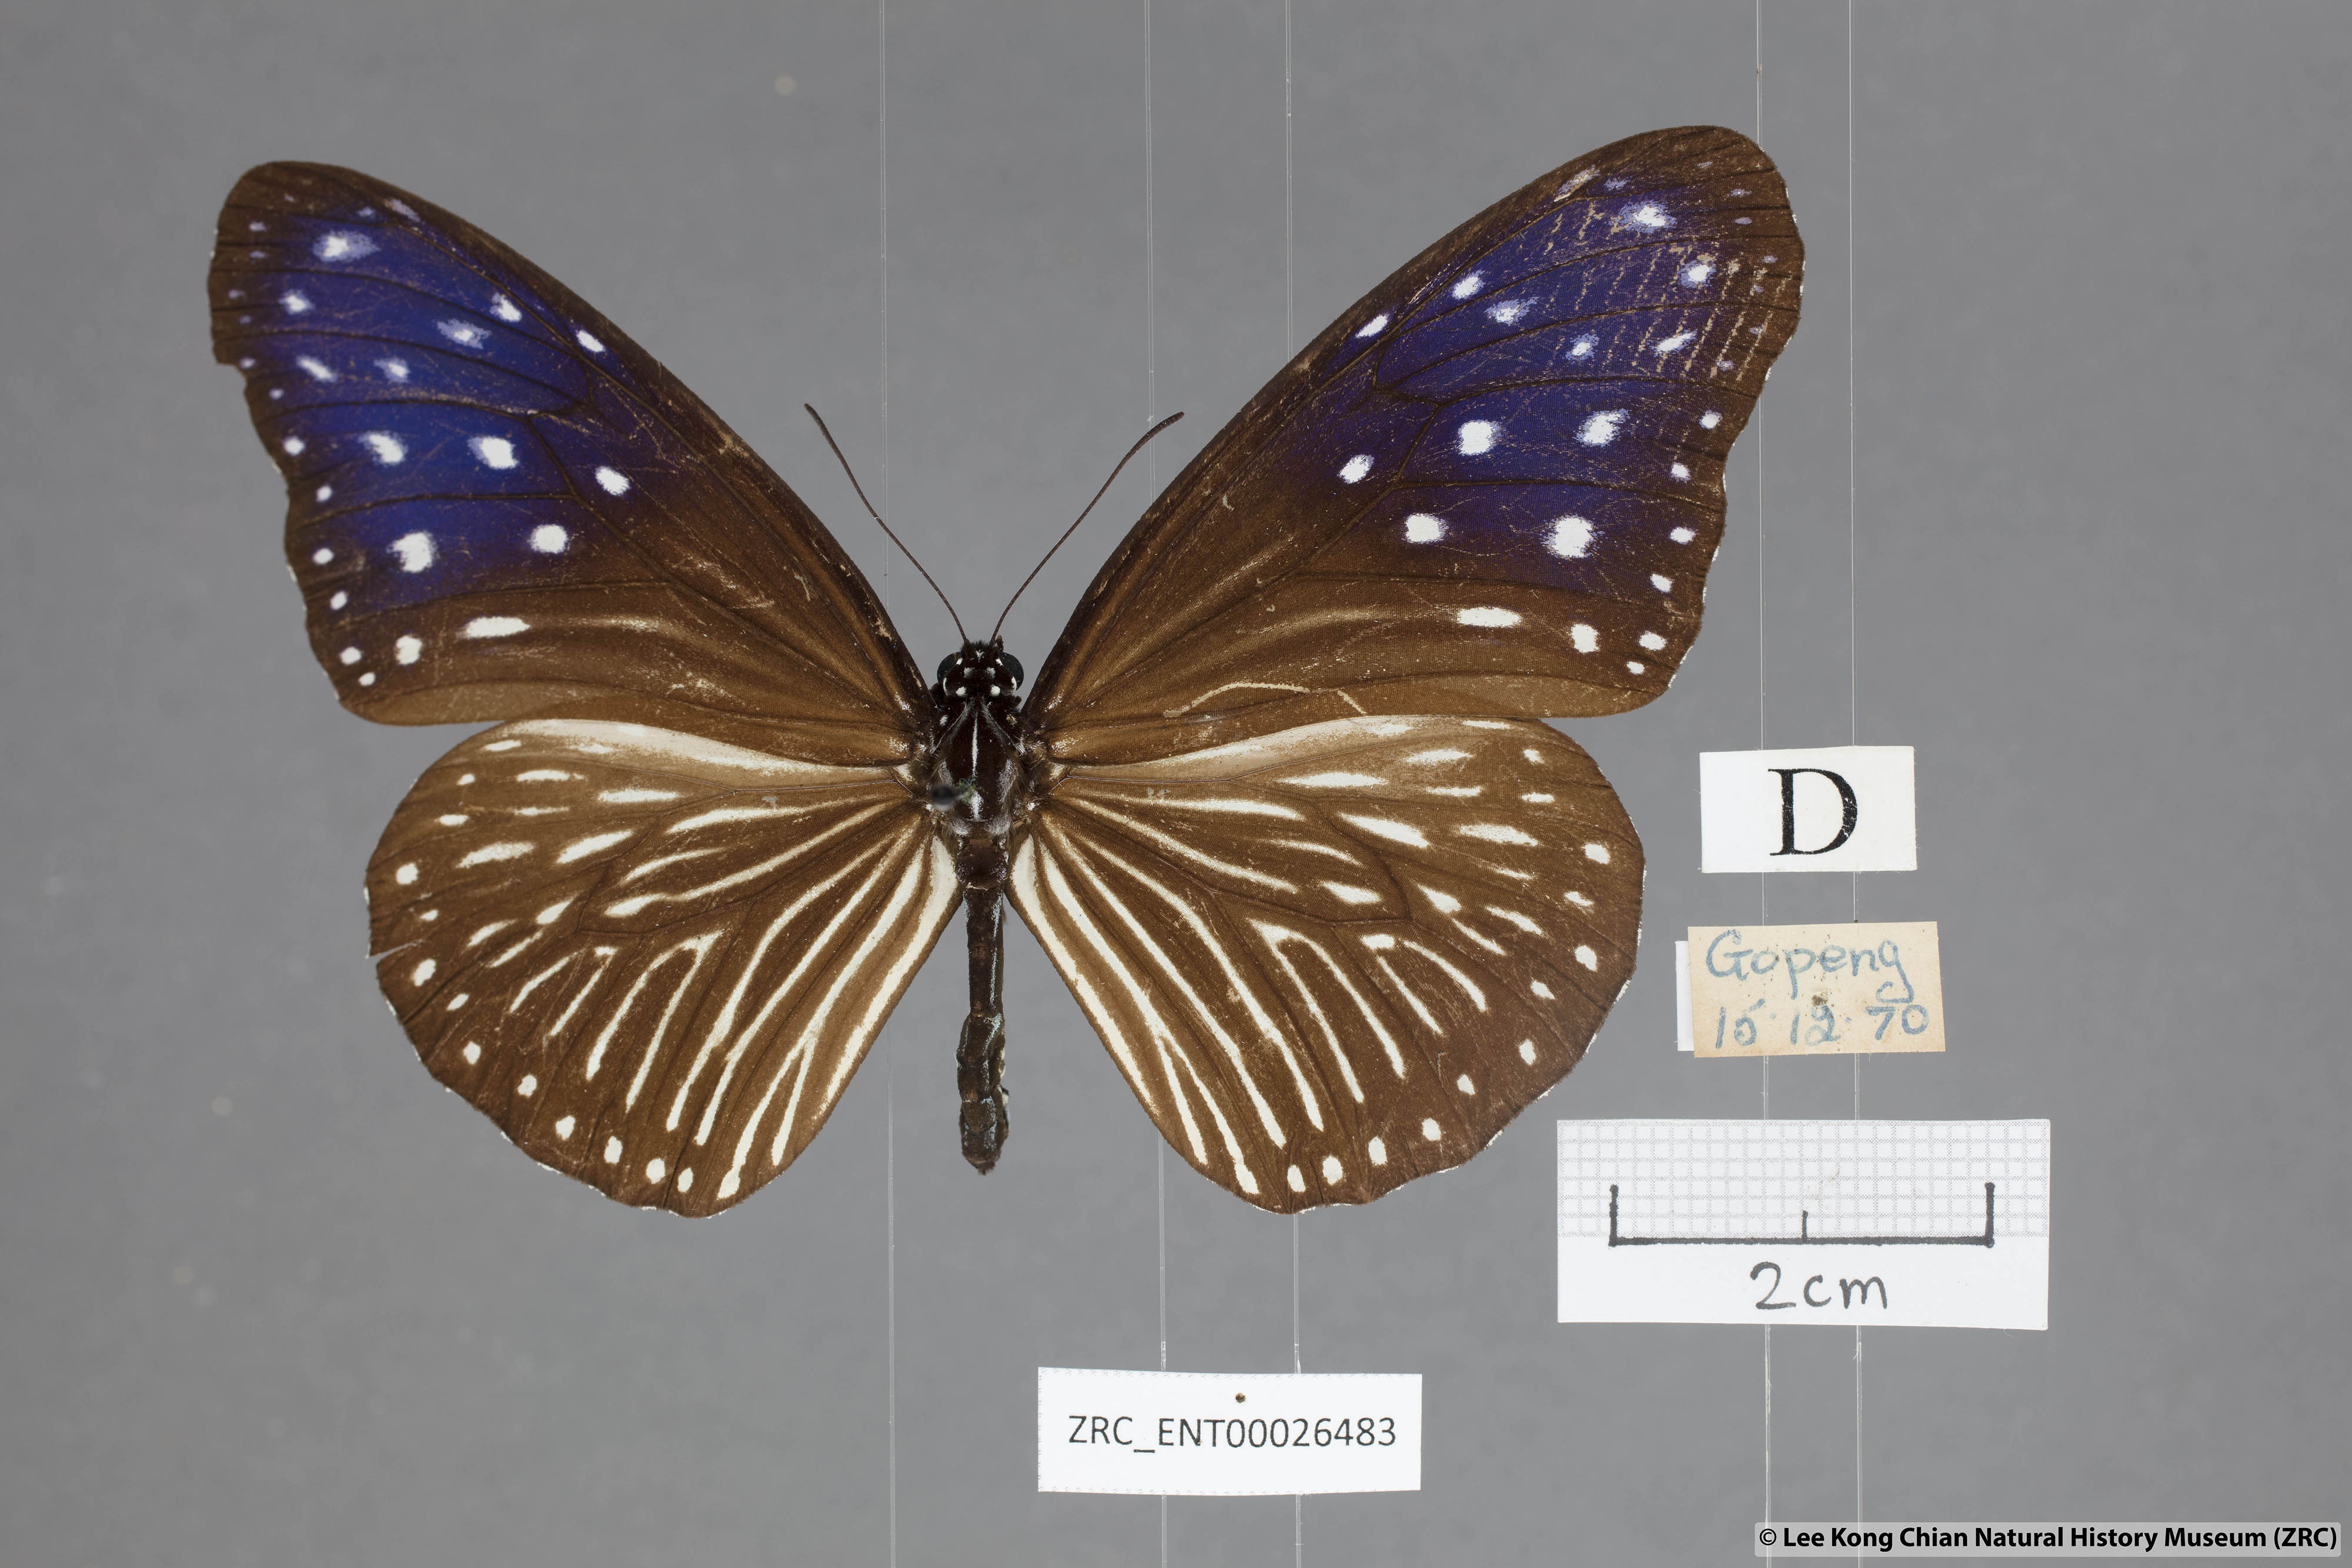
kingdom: Animalia
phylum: Arthropoda
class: Insecta
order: Lepidoptera
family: Nymphalidae
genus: Euploea
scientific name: Euploea mulciber
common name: Striped blue crow butterfly
